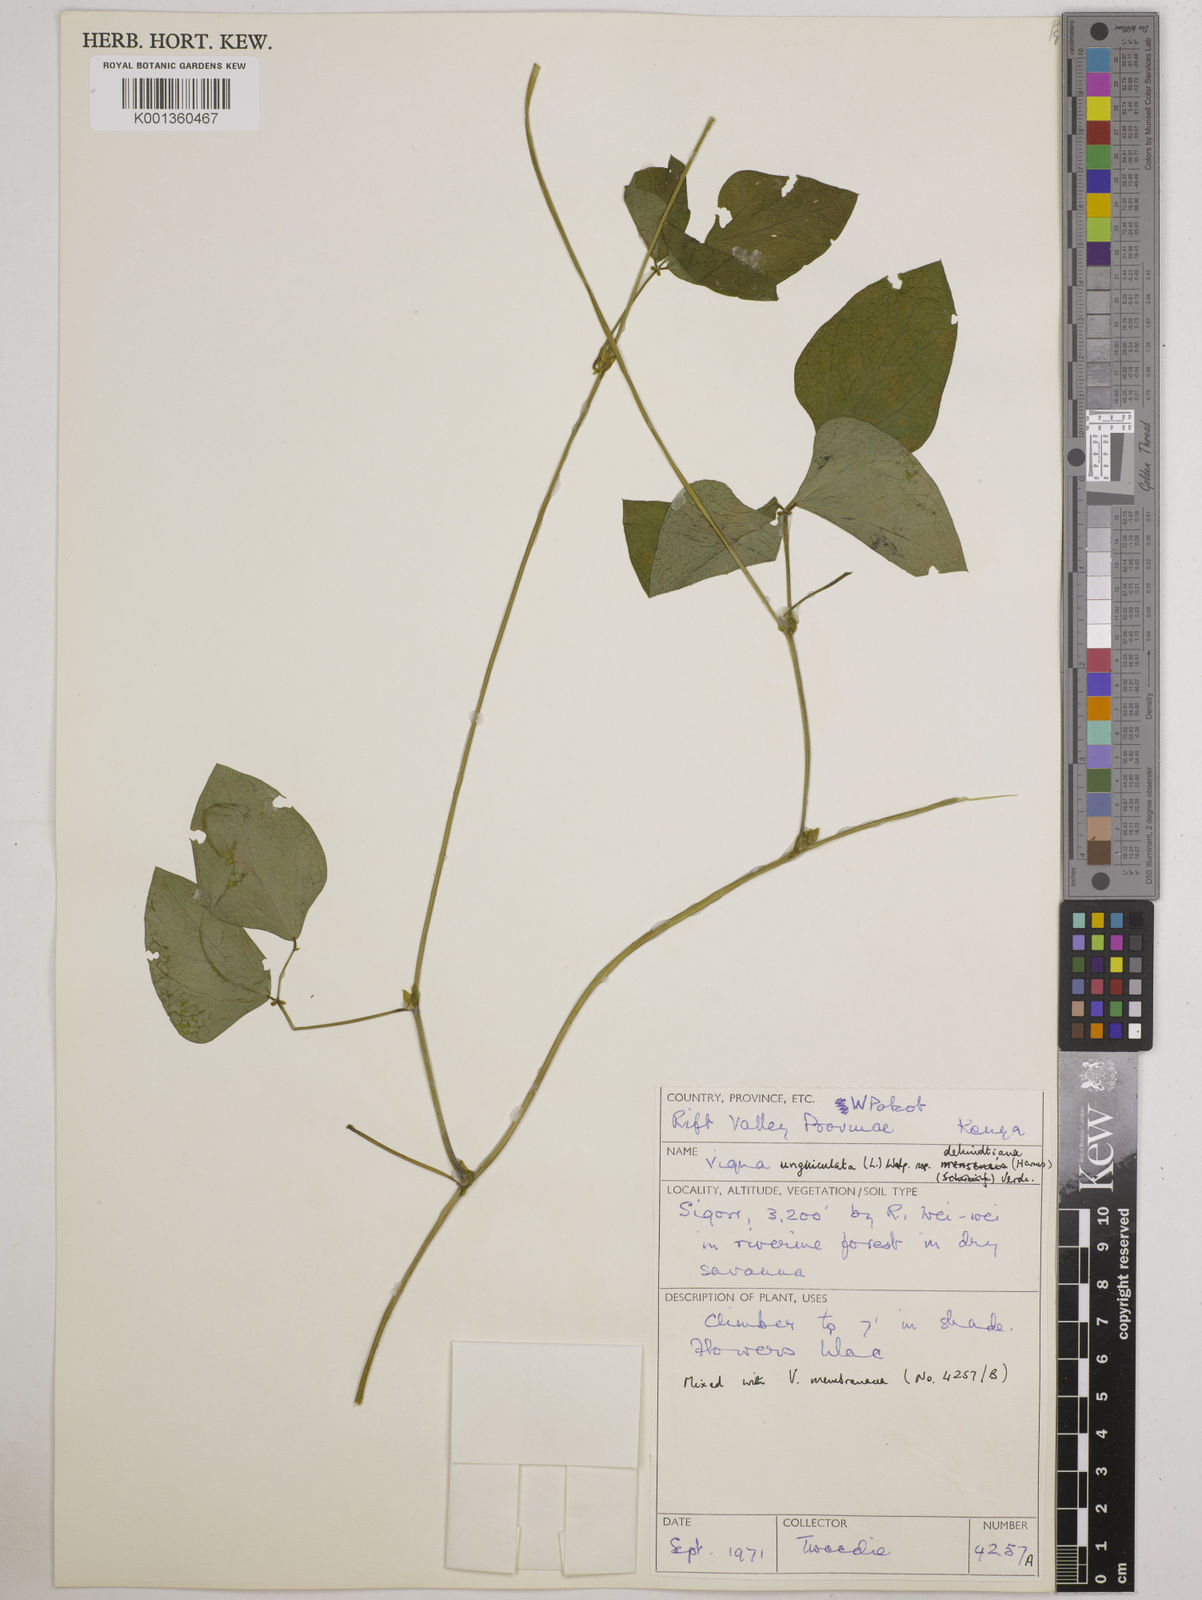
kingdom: Plantae
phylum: Tracheophyta
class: Magnoliopsida
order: Fabales
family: Fabaceae
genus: Vigna
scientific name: Vigna
